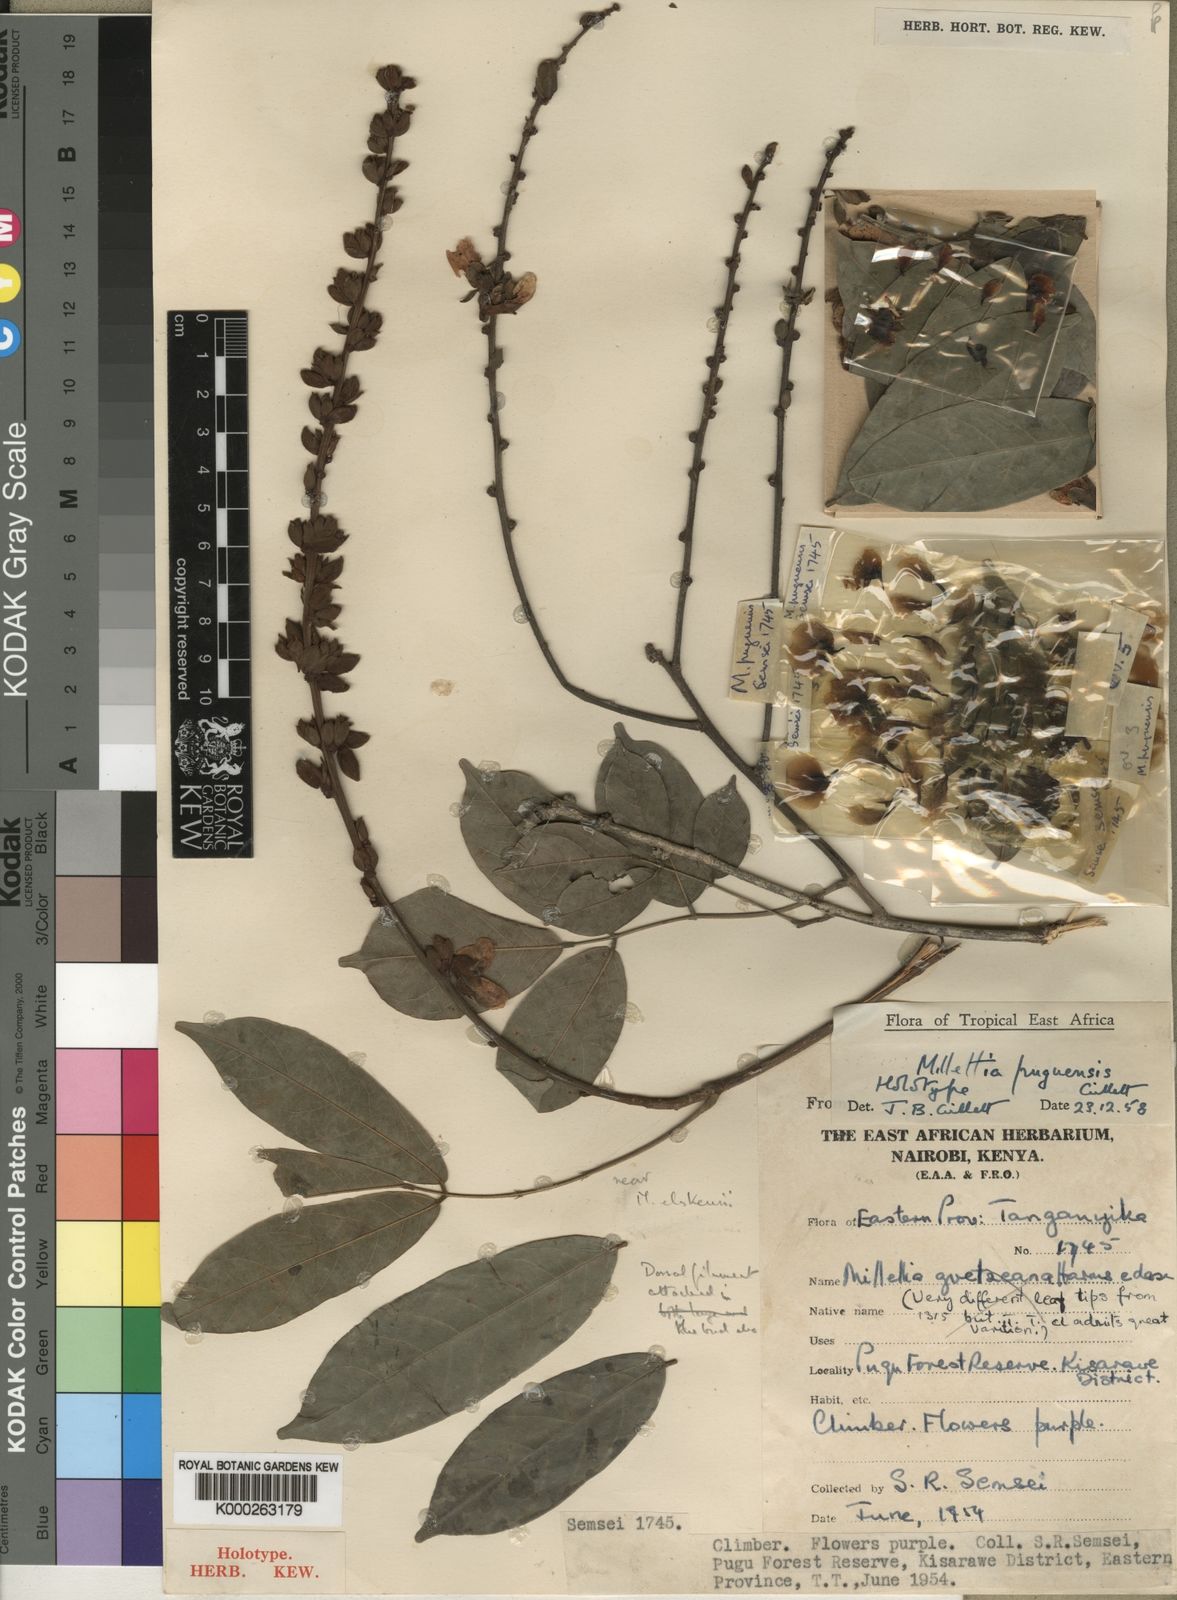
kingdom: Plantae
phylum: Tracheophyta
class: Magnoliopsida
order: Fabales
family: Fabaceae
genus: Millettia
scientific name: Millettia puguensis
